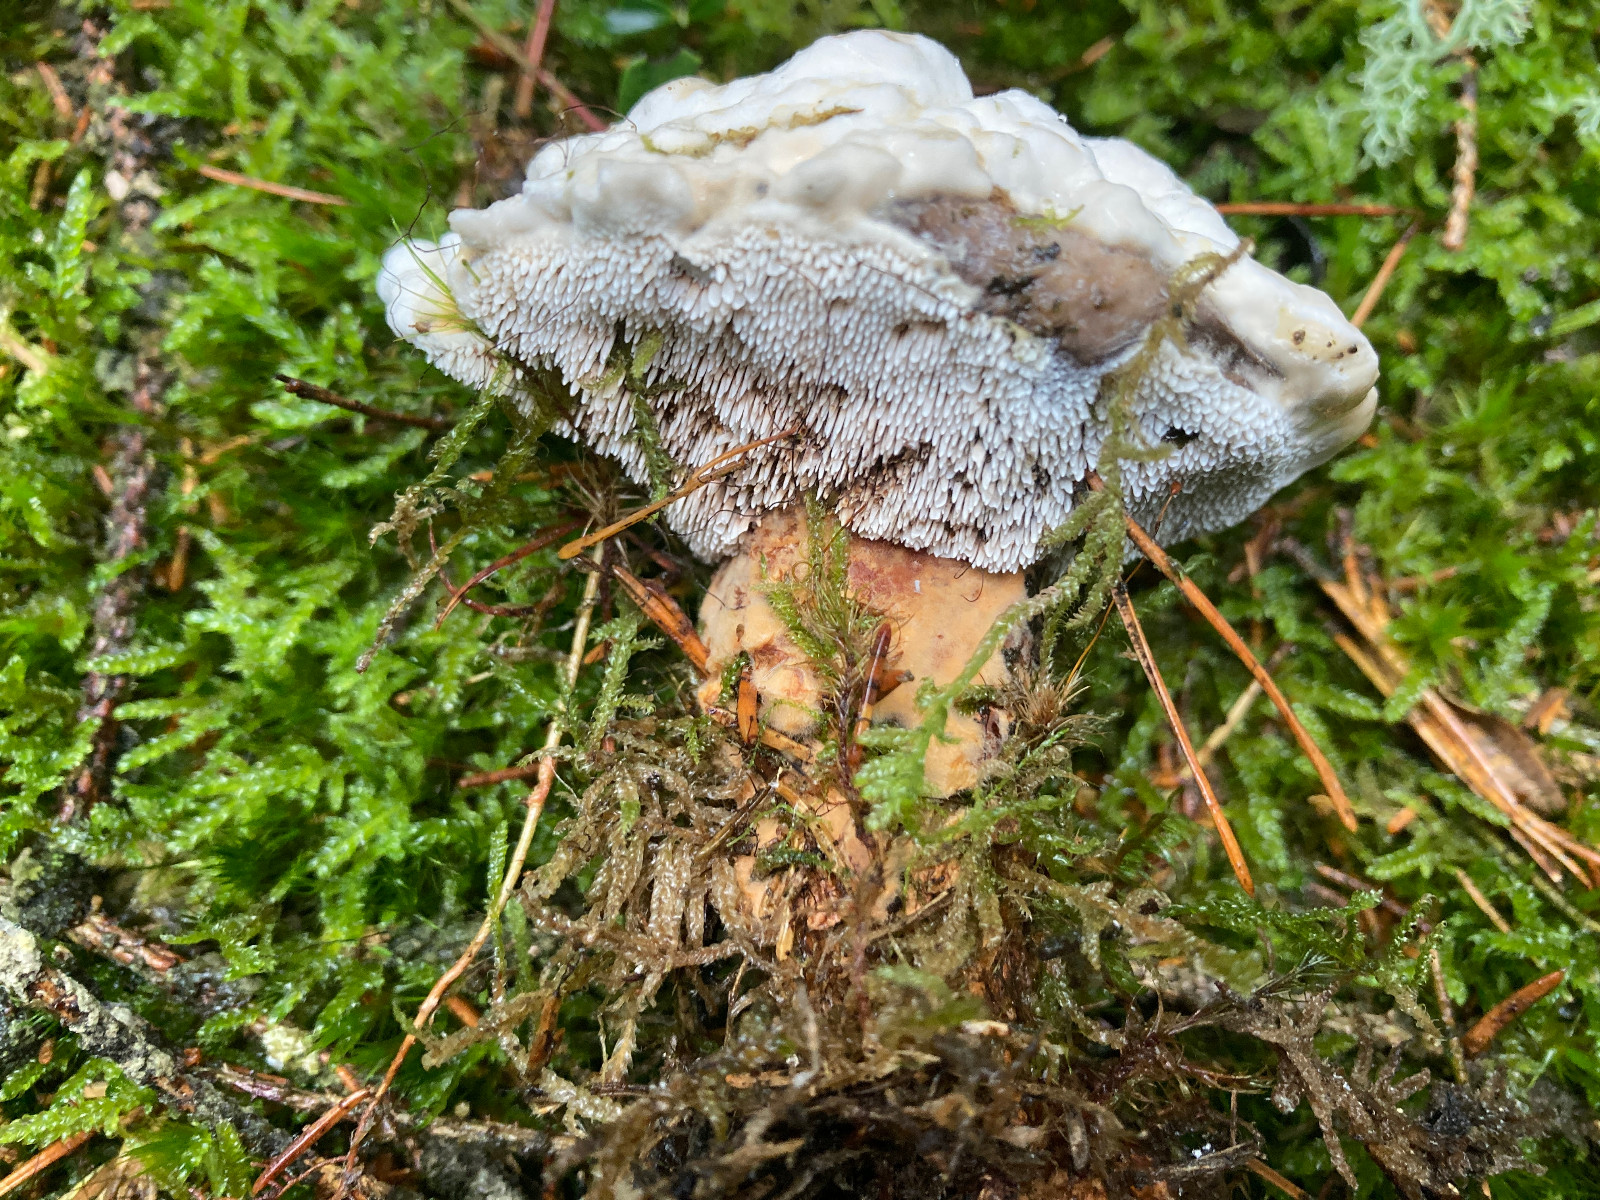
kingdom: Fungi
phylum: Basidiomycota
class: Agaricomycetes
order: Thelephorales
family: Bankeraceae
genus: Hydnellum
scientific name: Hydnellum aurantiacum
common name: orange korkpigsvamp
